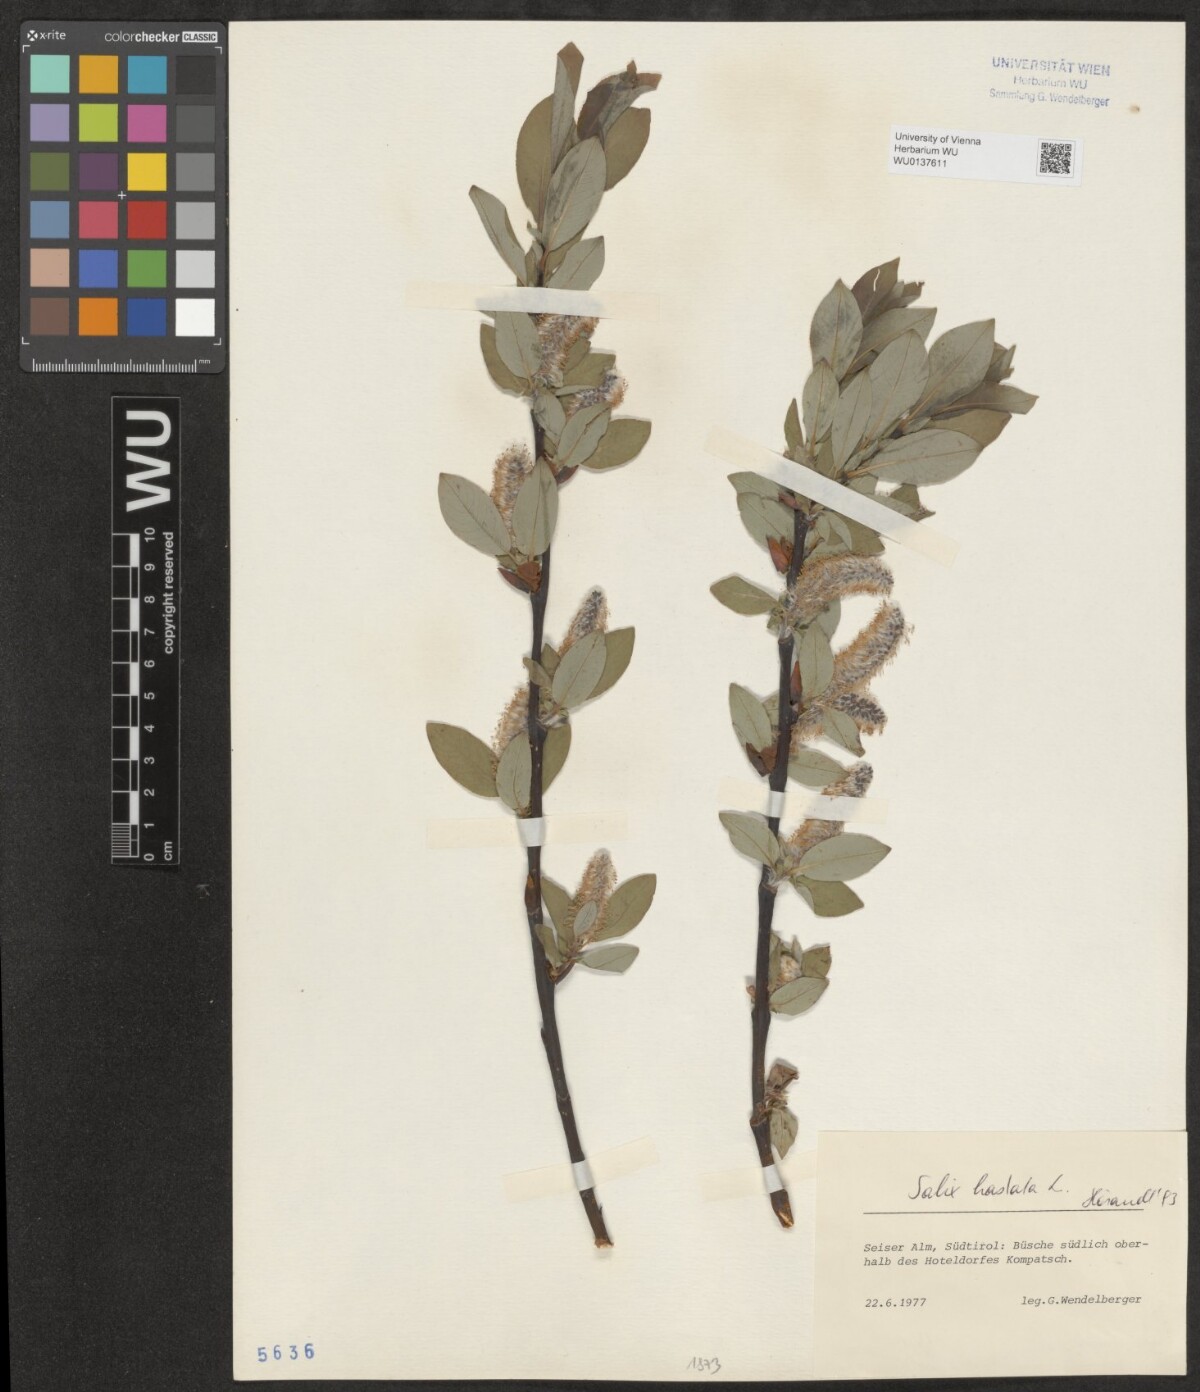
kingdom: Plantae
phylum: Tracheophyta
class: Magnoliopsida
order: Malpighiales
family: Salicaceae
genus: Salix
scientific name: Salix hastata
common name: Halberd willow
